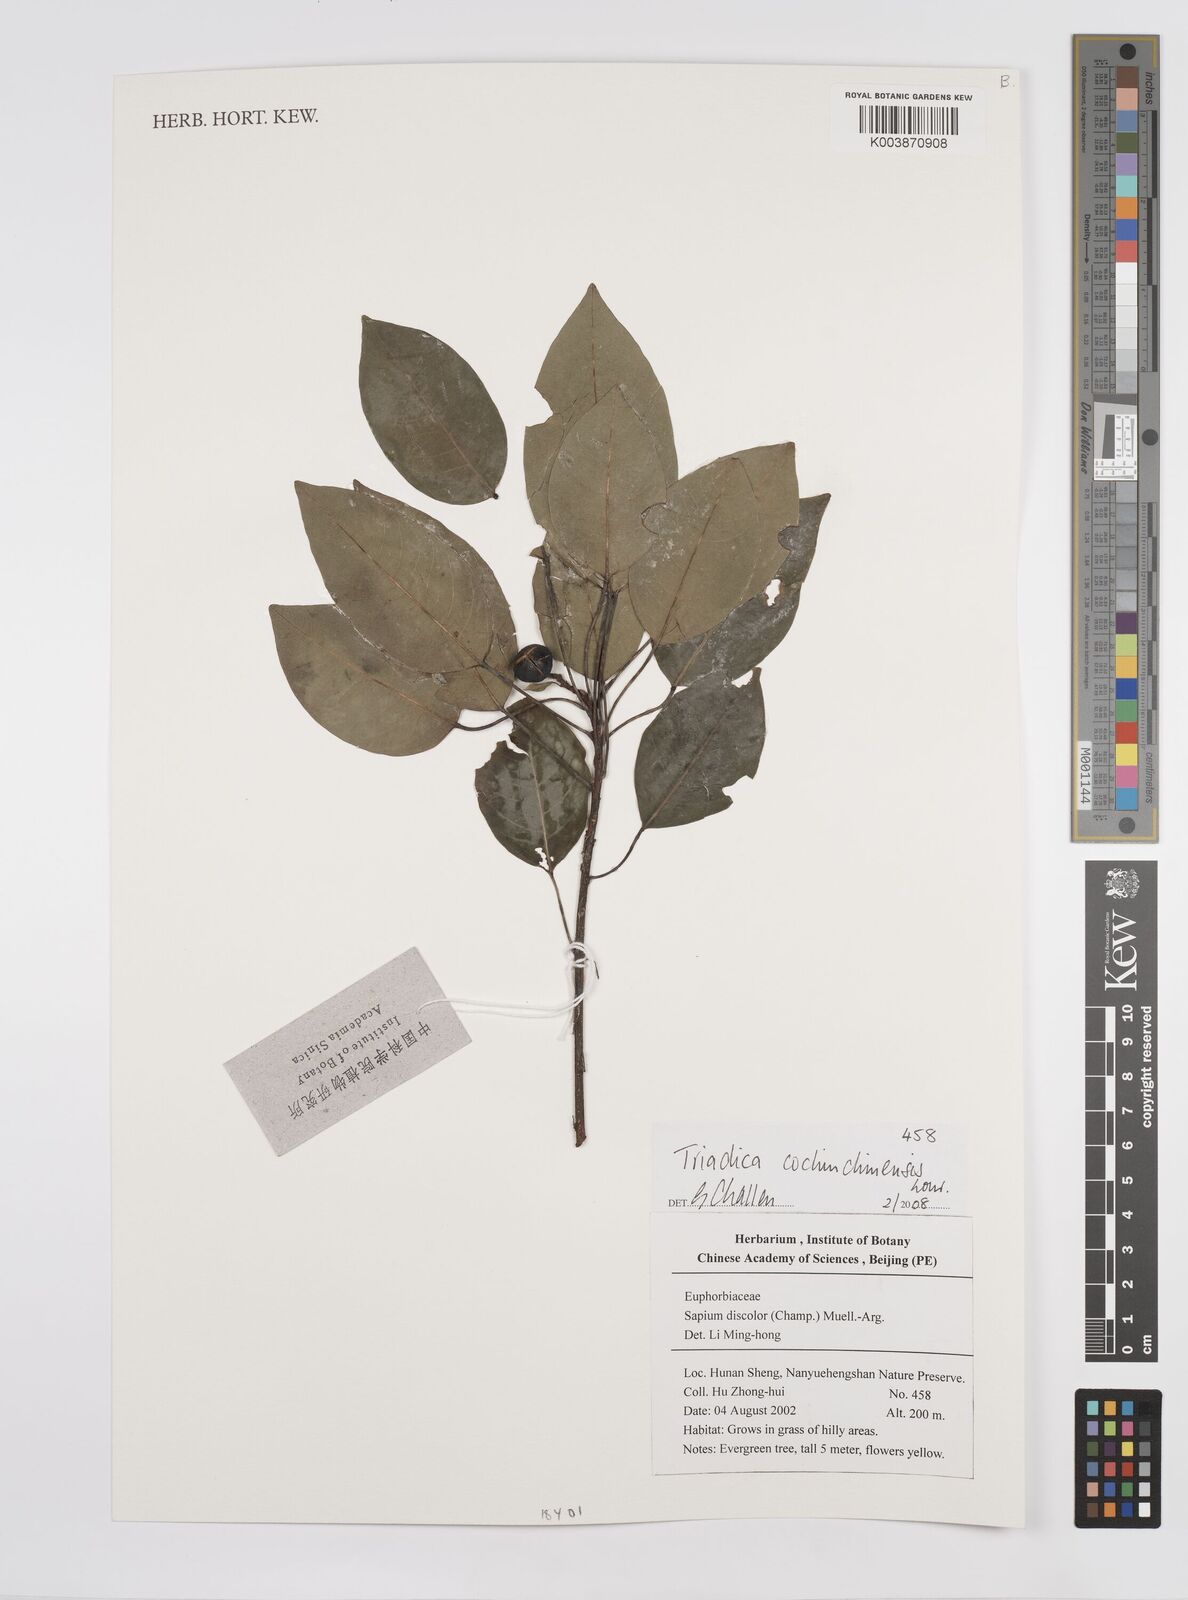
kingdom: Plantae
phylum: Tracheophyta
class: Magnoliopsida
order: Malpighiales
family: Euphorbiaceae
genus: Triadica
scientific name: Triadica cochinchinensis
